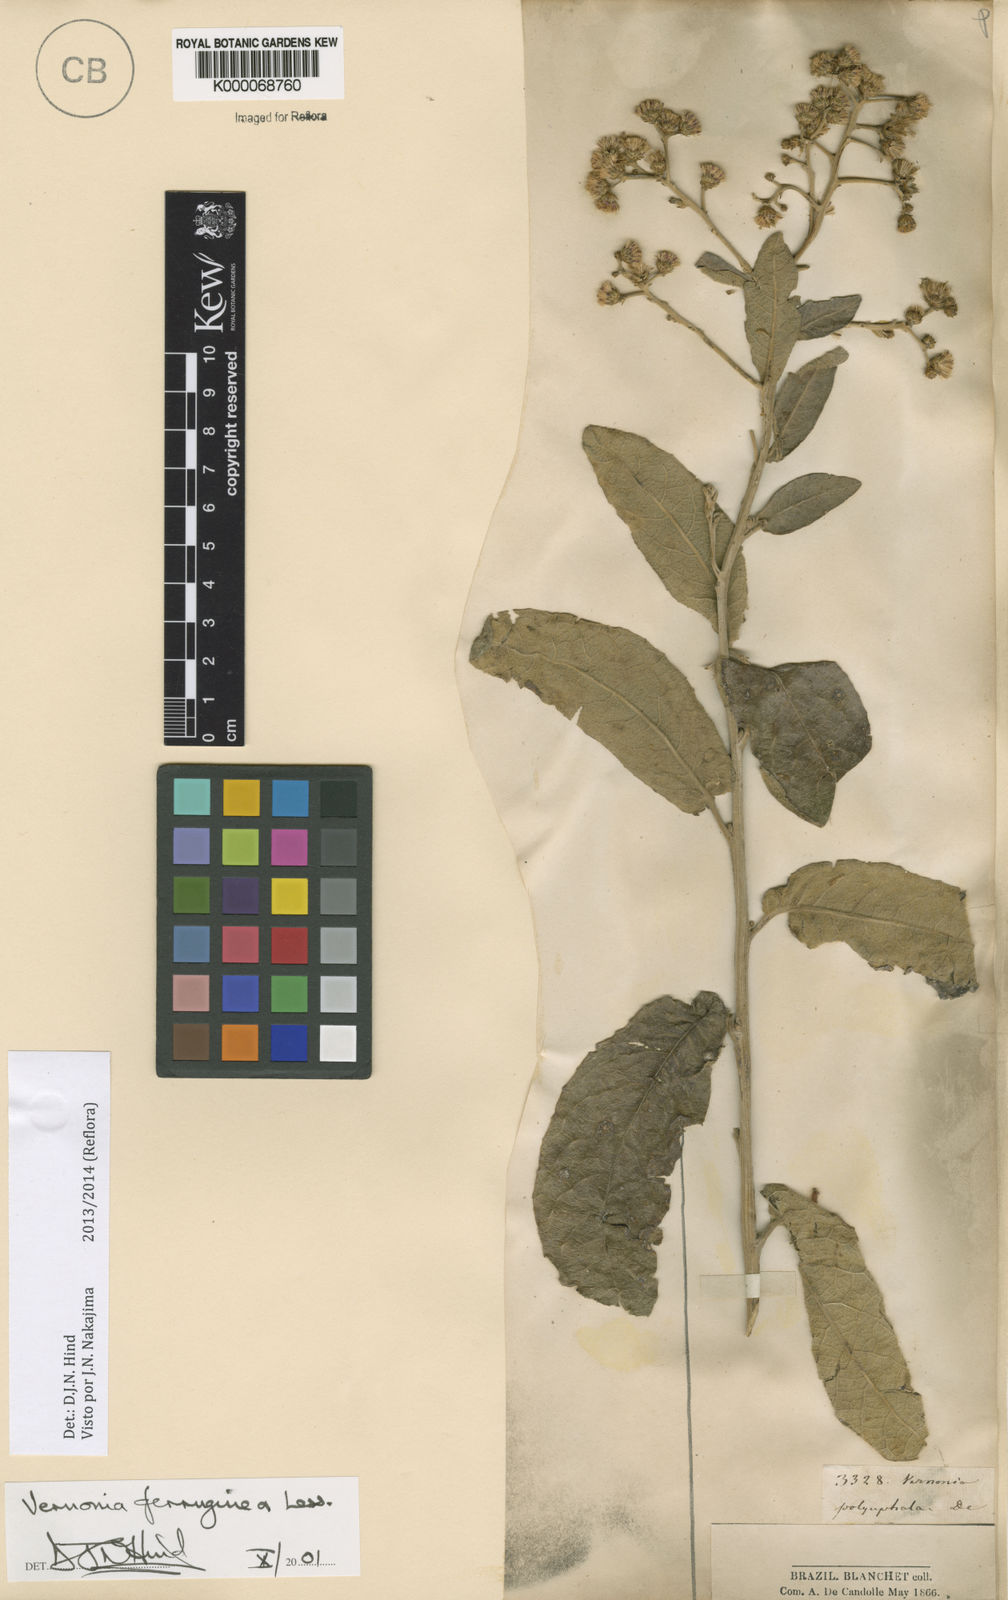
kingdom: Plantae
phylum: Tracheophyta
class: Magnoliopsida
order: Asterales
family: Asteraceae
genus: Vernonanthura
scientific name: Vernonanthura ferruginea
